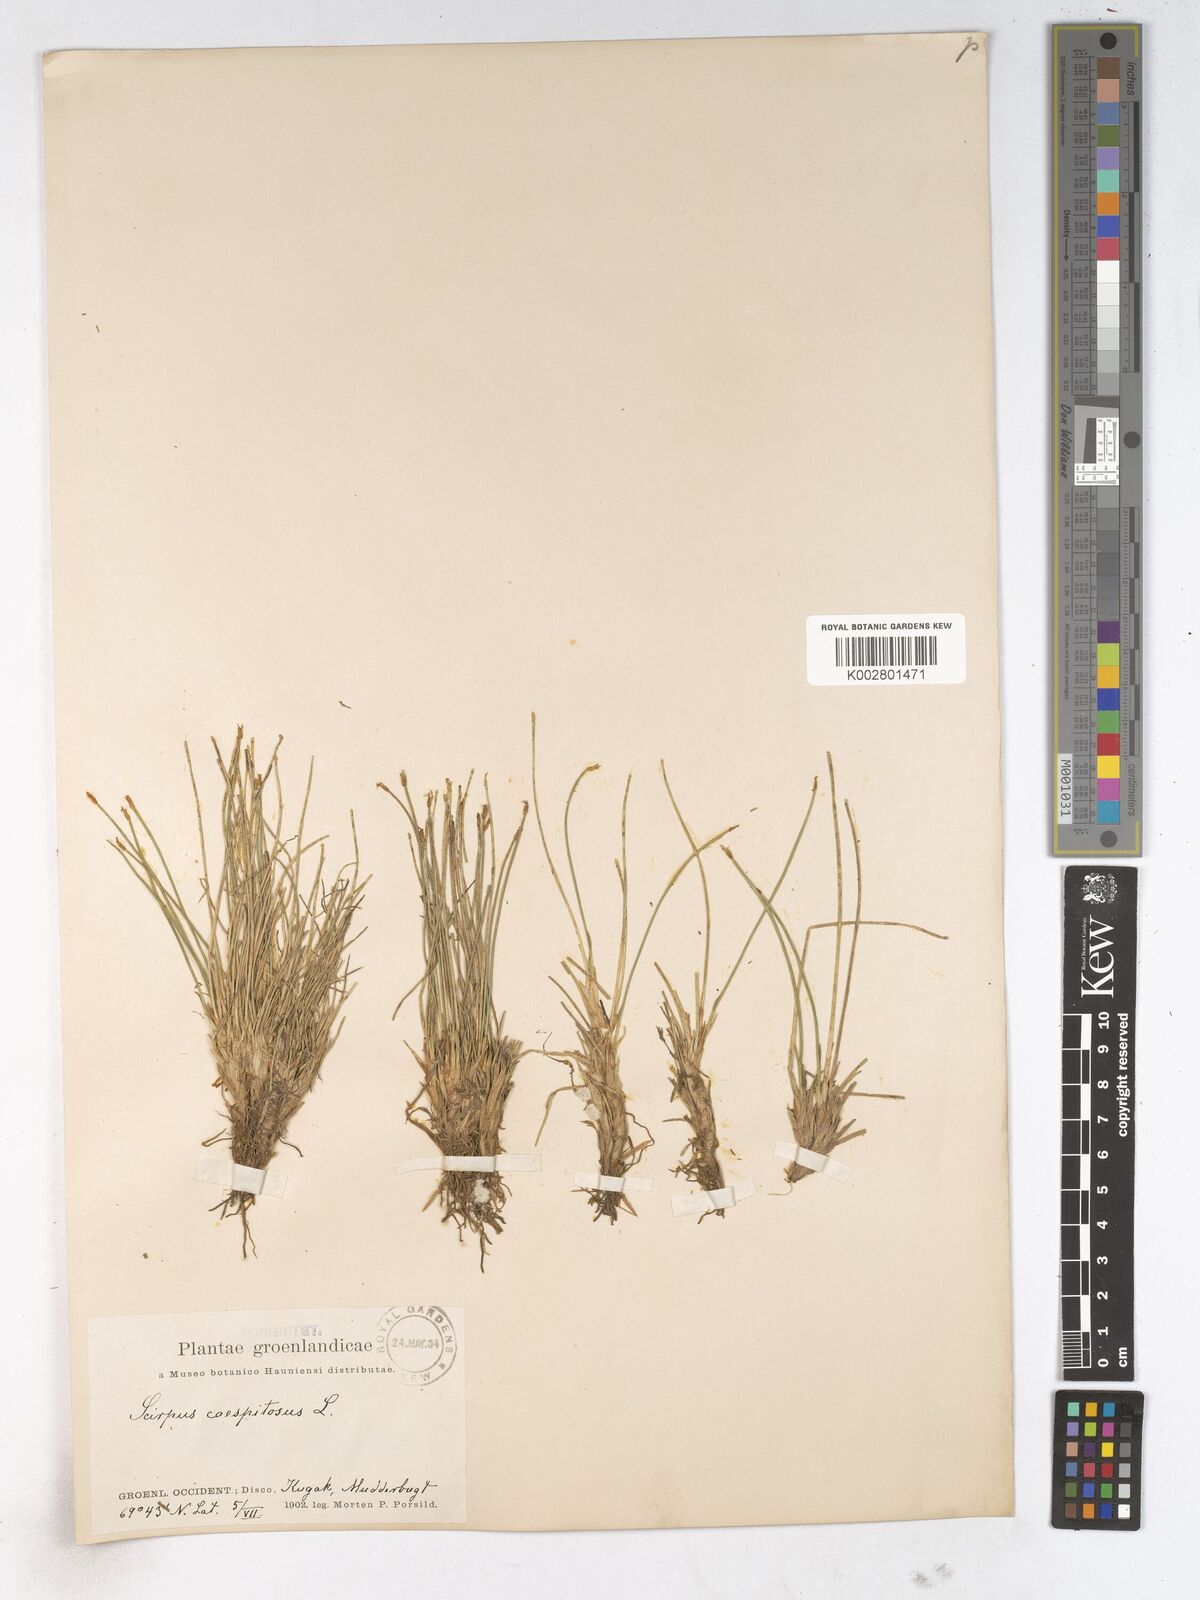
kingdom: Plantae
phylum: Tracheophyta
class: Liliopsida
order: Poales
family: Cyperaceae
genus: Trichophorum
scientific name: Trichophorum cespitosum
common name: Cespitose bulrush
